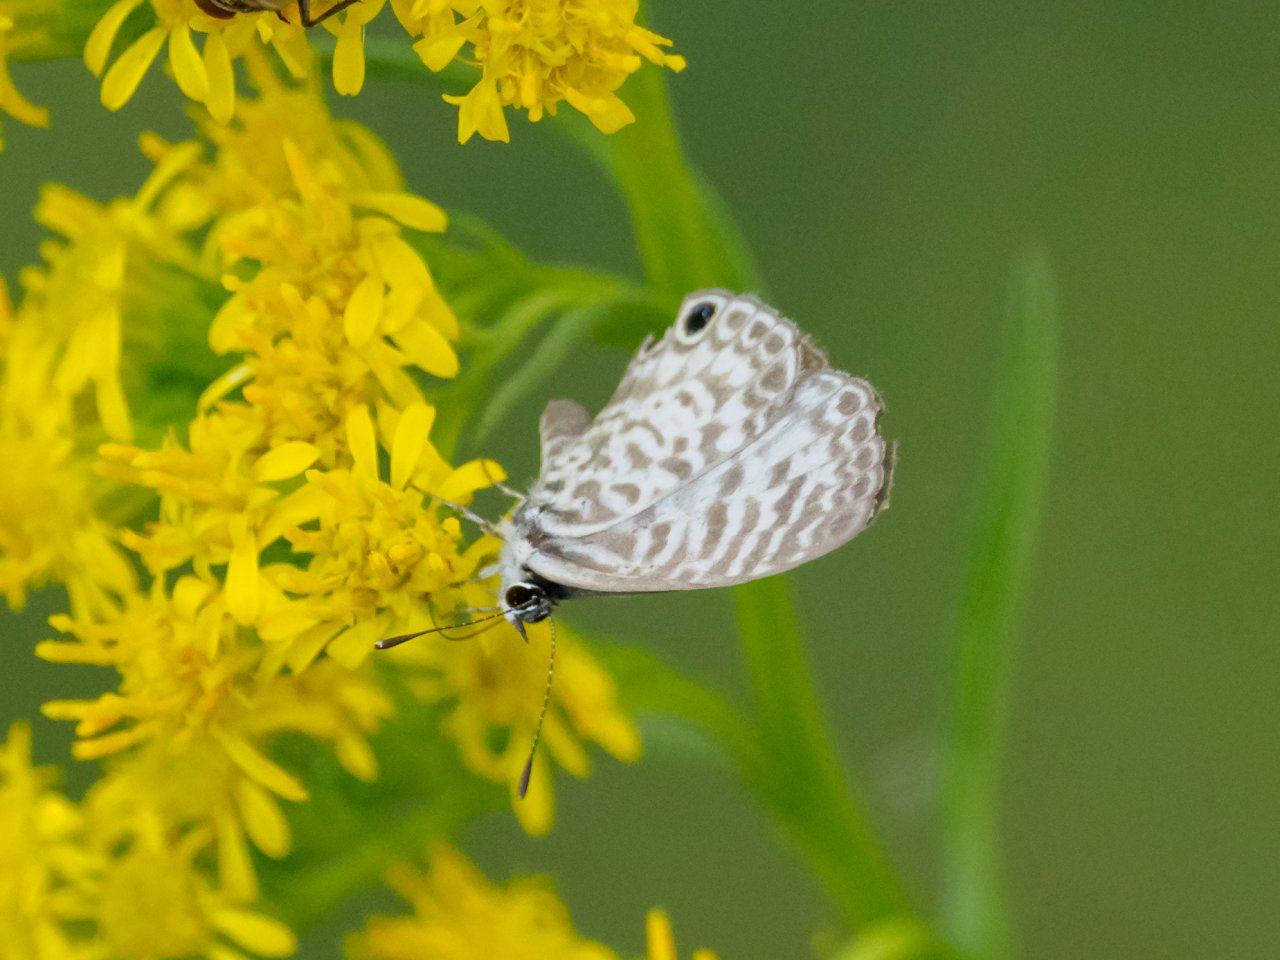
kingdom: Animalia
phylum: Arthropoda
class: Insecta
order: Lepidoptera
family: Nymphalidae
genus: Libytheana
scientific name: Libytheana carinenta
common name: American Snout
